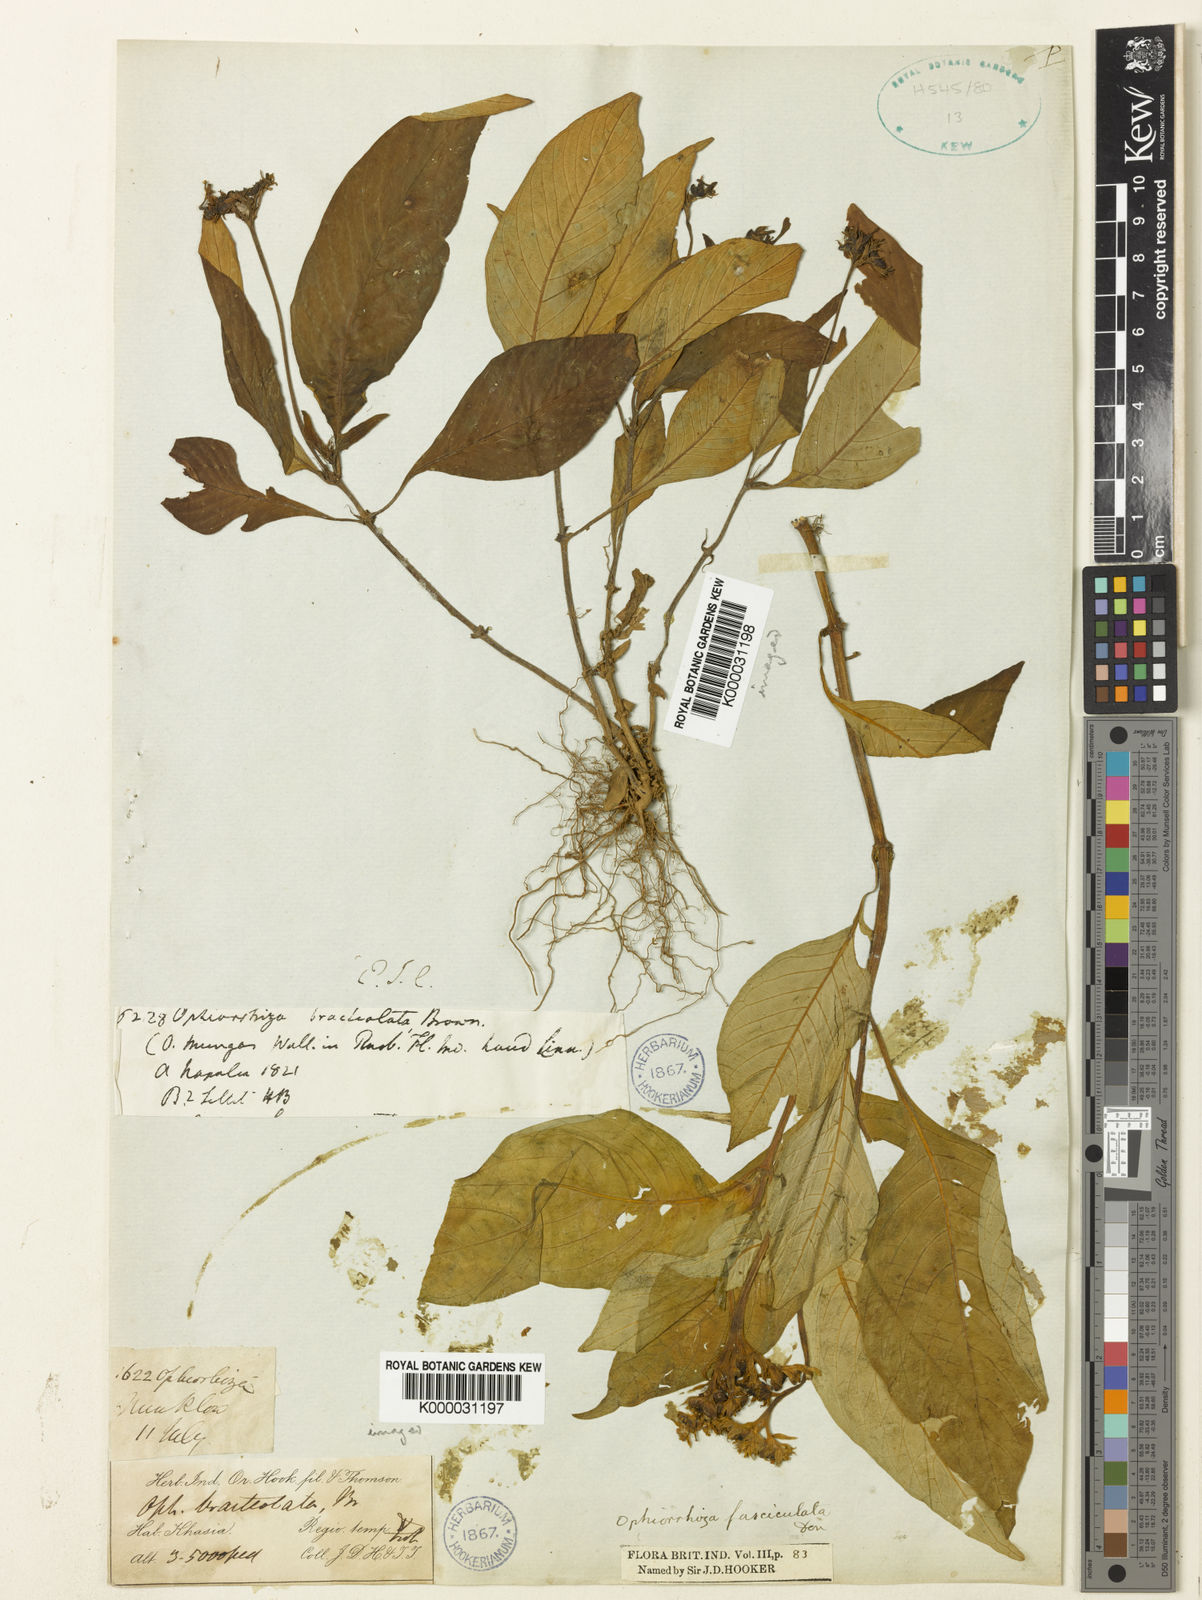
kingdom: Plantae
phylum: Tracheophyta
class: Magnoliopsida
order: Gentianales
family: Rubiaceae
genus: Ophiorrhiza
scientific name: Ophiorrhiza
